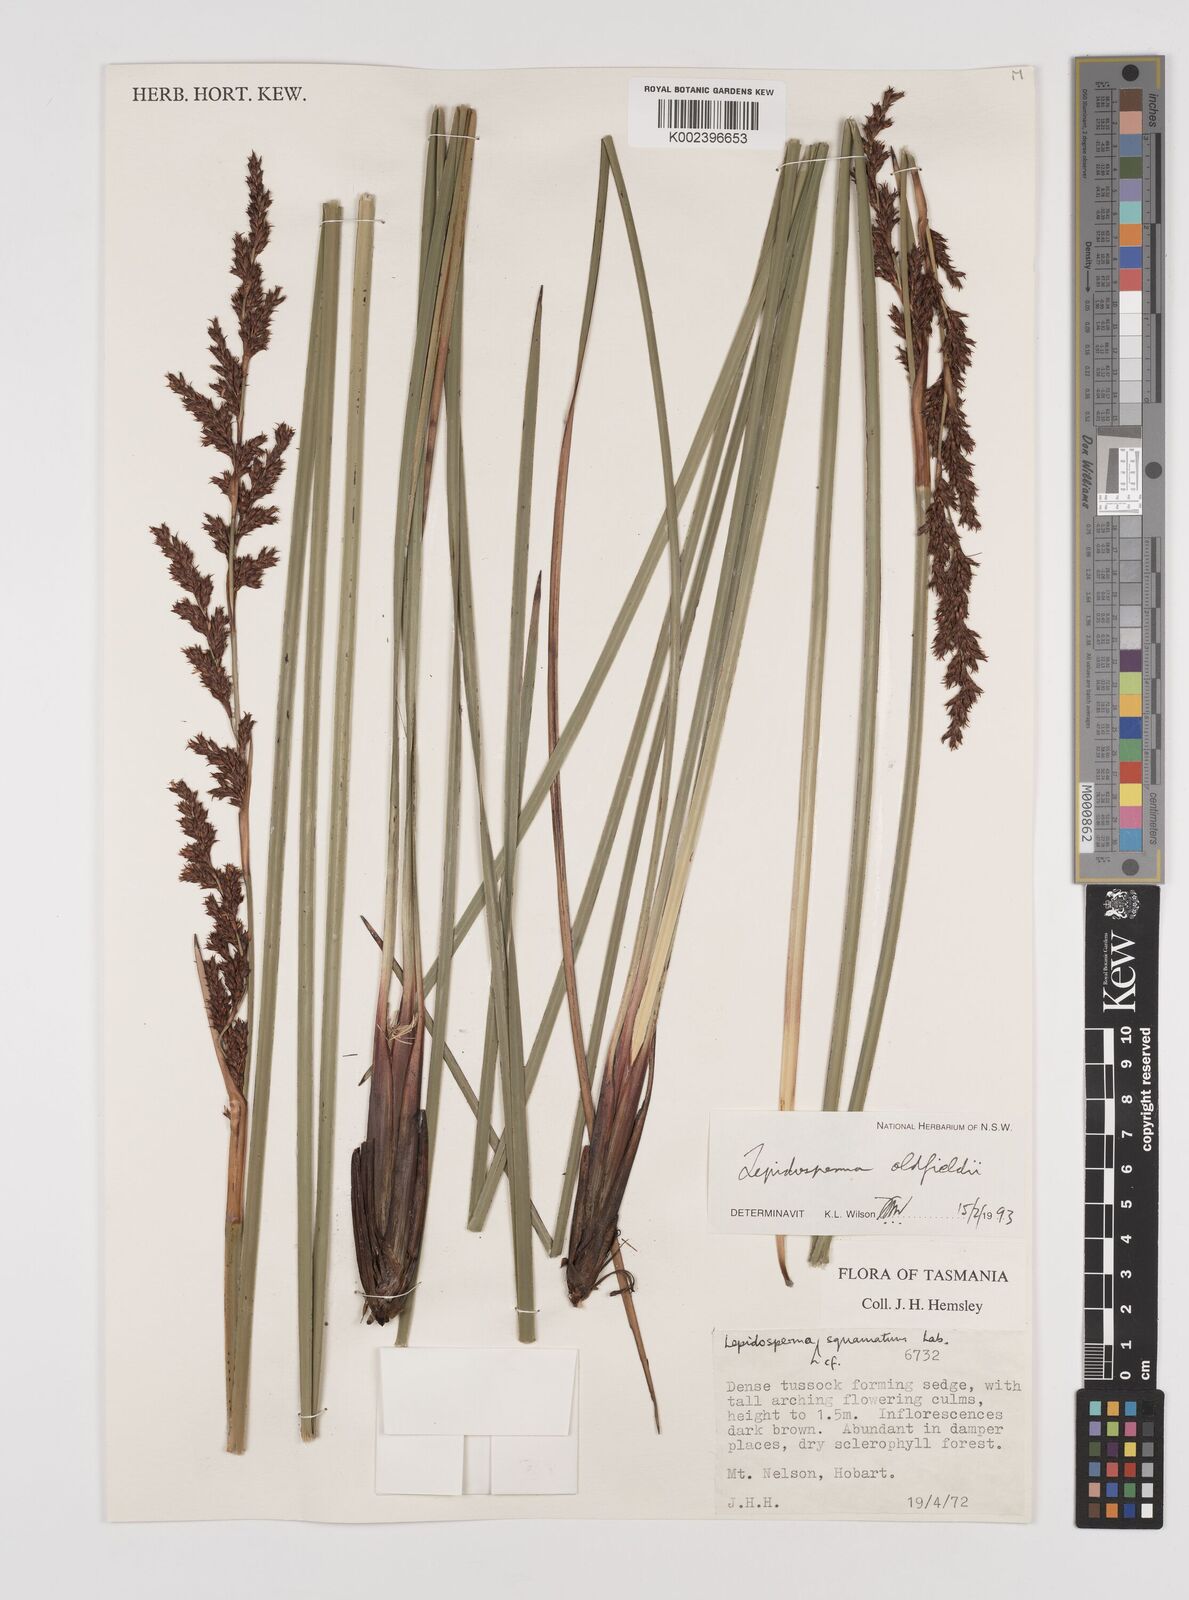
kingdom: Plantae
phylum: Tracheophyta
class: Liliopsida
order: Poales
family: Cyperaceae
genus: Lepidosperma
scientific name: Lepidosperma oldfieldii
